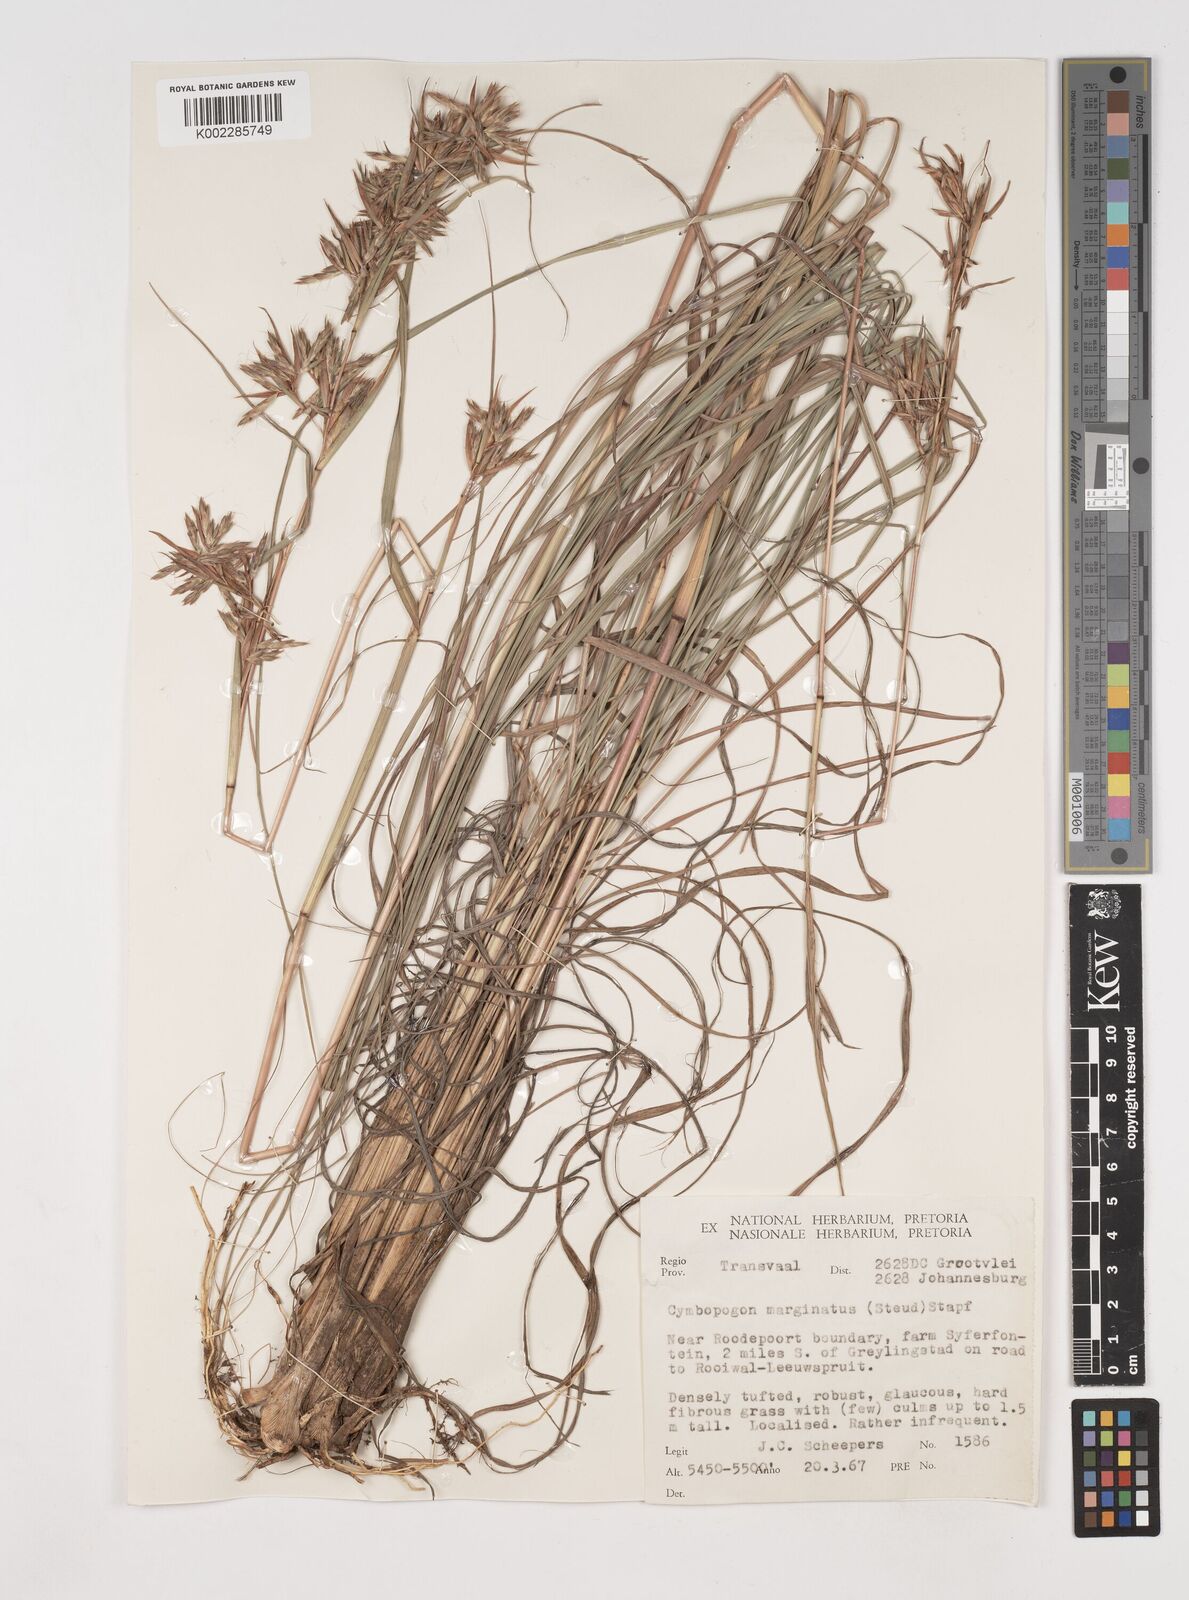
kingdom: Plantae
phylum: Tracheophyta
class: Liliopsida
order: Poales
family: Poaceae
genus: Cymbopogon
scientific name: Cymbopogon nardus
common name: Giant turpentine grass
